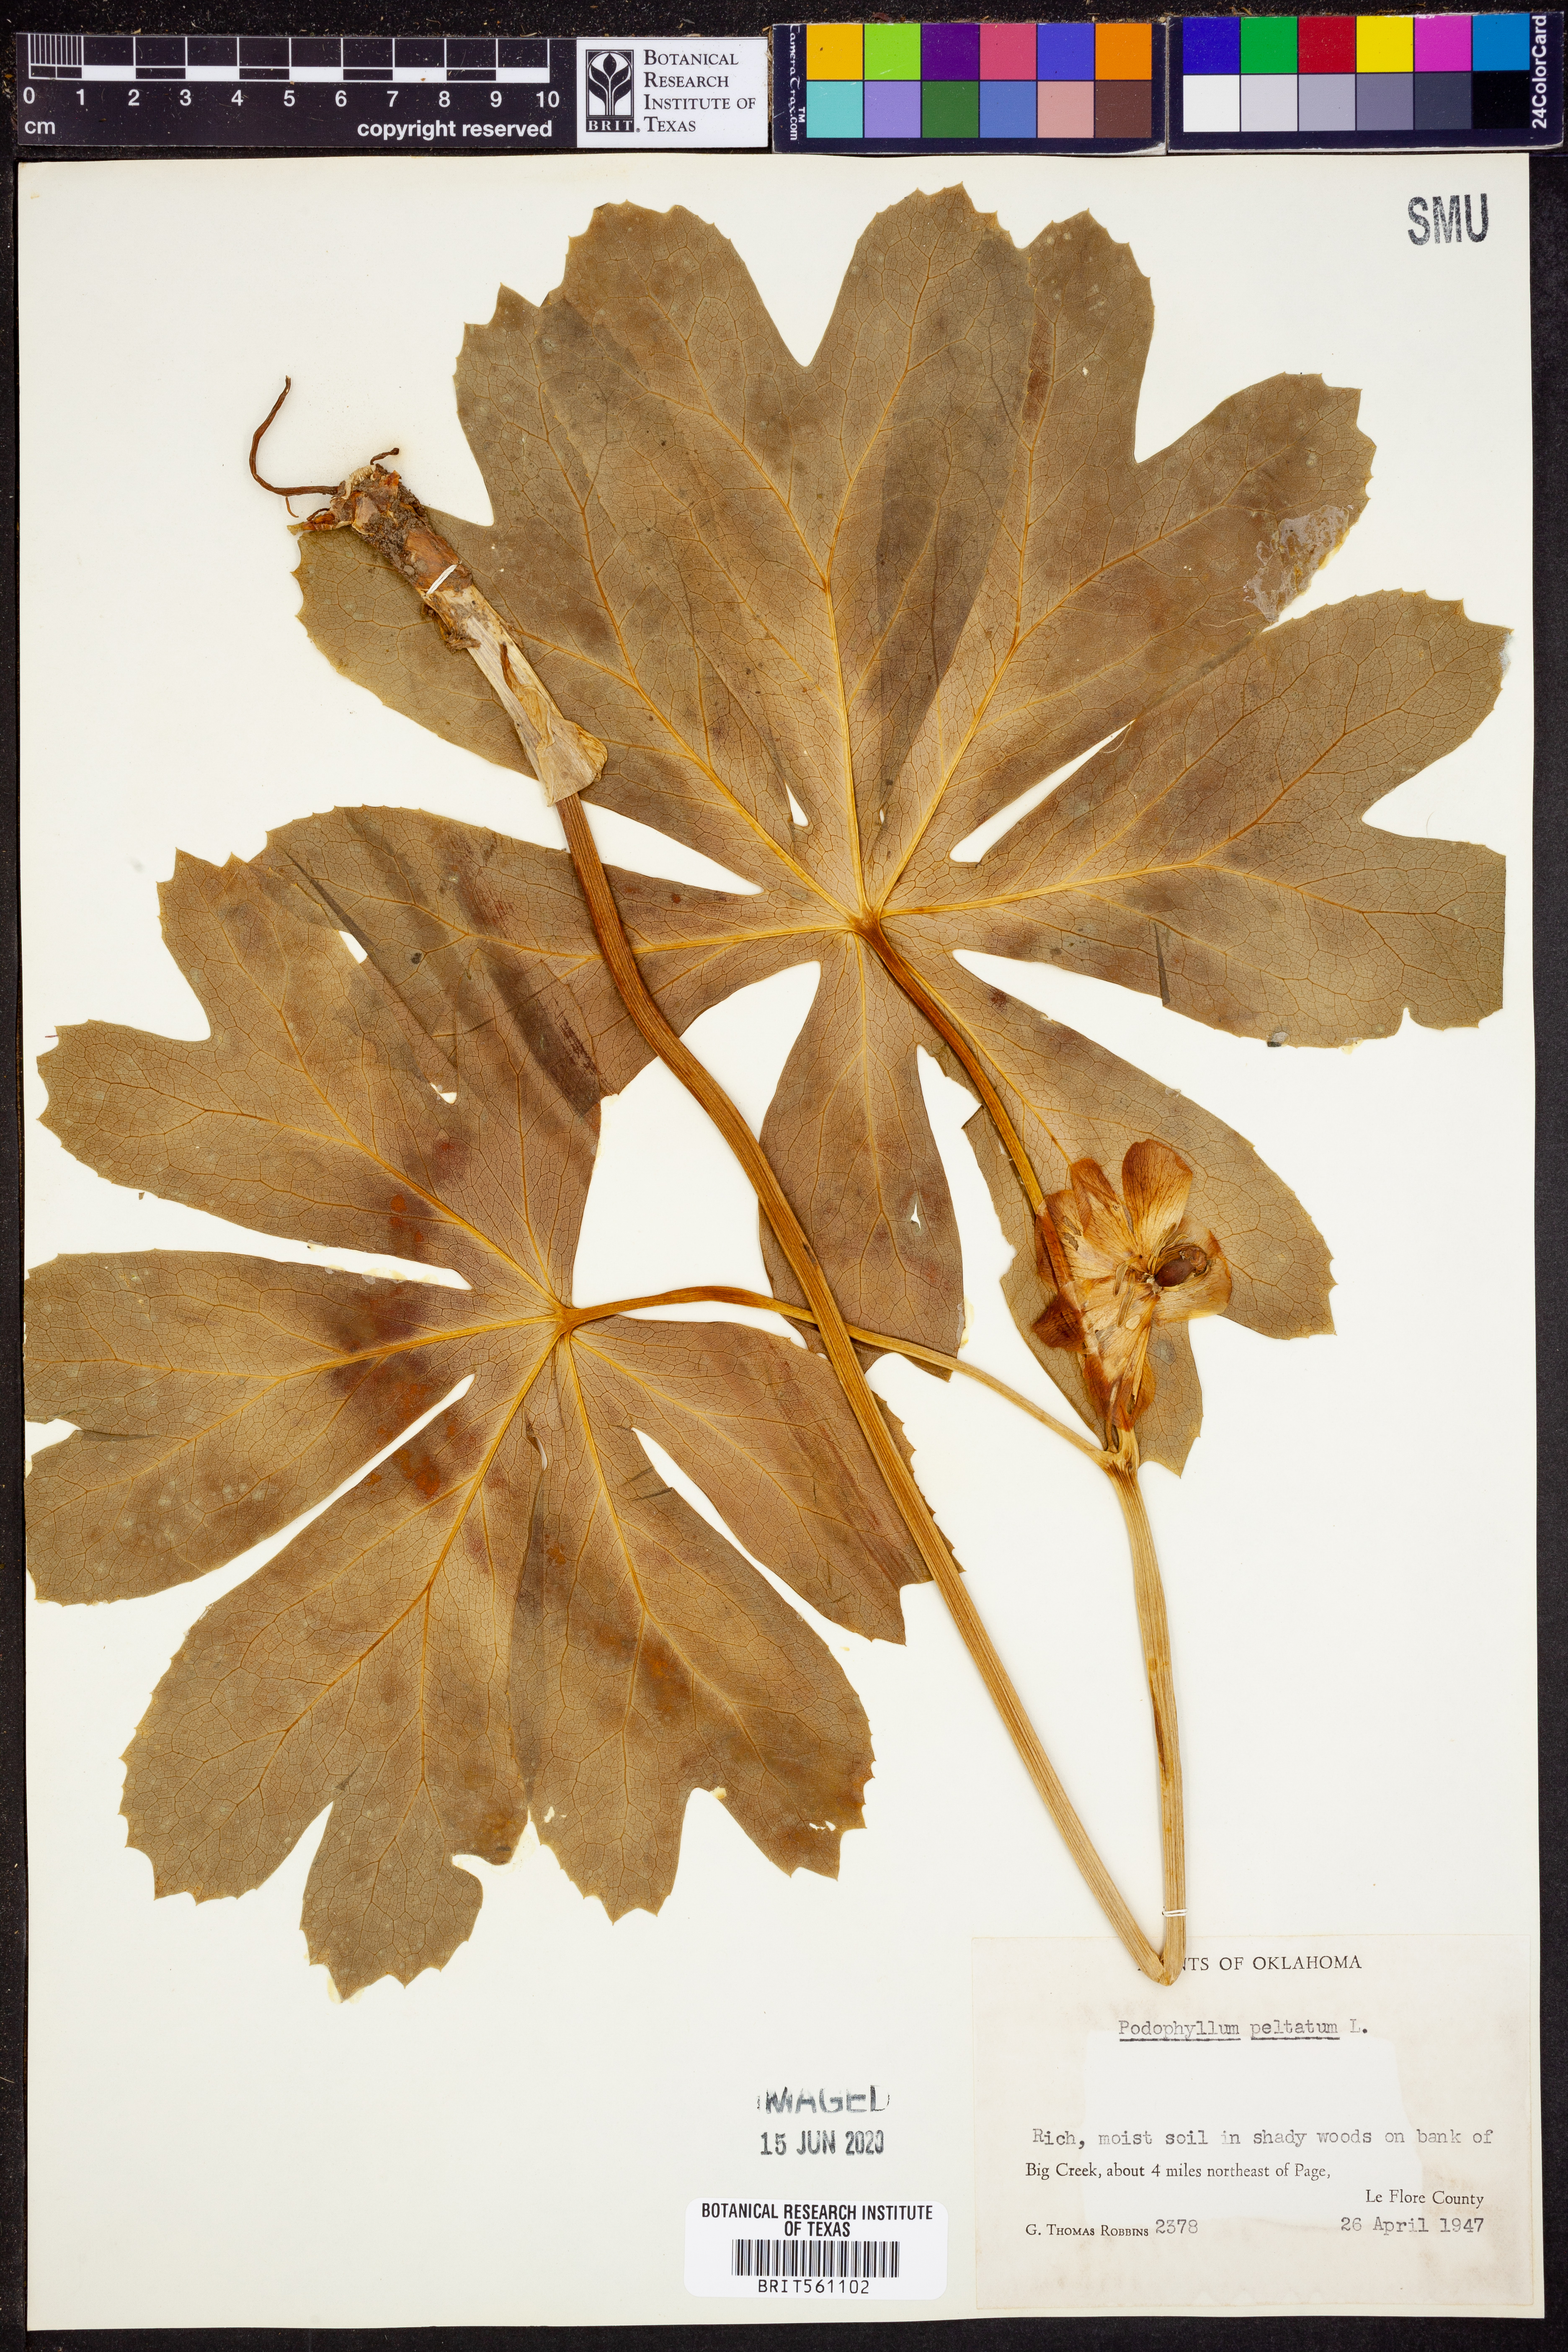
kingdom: Plantae
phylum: Tracheophyta
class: Magnoliopsida
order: Ranunculales
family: Berberidaceae
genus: Podophyllum
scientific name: Podophyllum peltatum
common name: Wild mandrake
